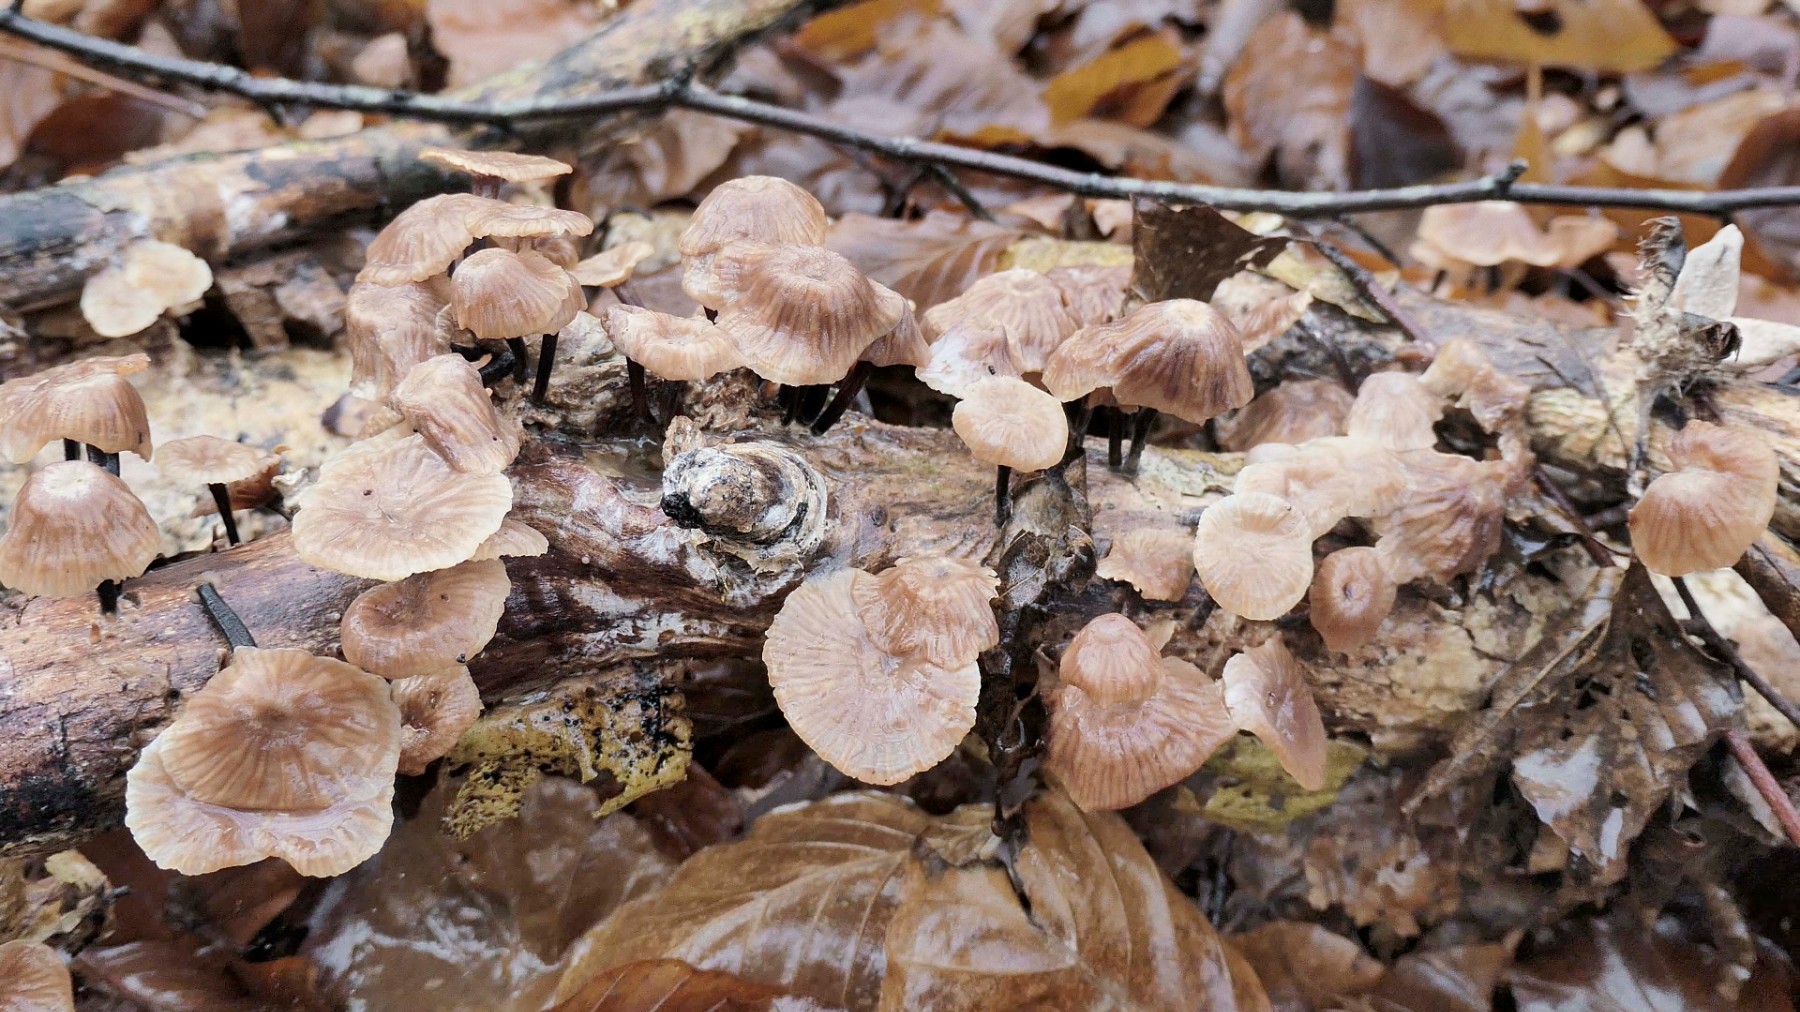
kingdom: Fungi
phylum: Basidiomycota
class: Agaricomycetes
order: Agaricales
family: Omphalotaceae
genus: Gymnopus
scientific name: Gymnopus foetidus
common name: stinkende fladhat
